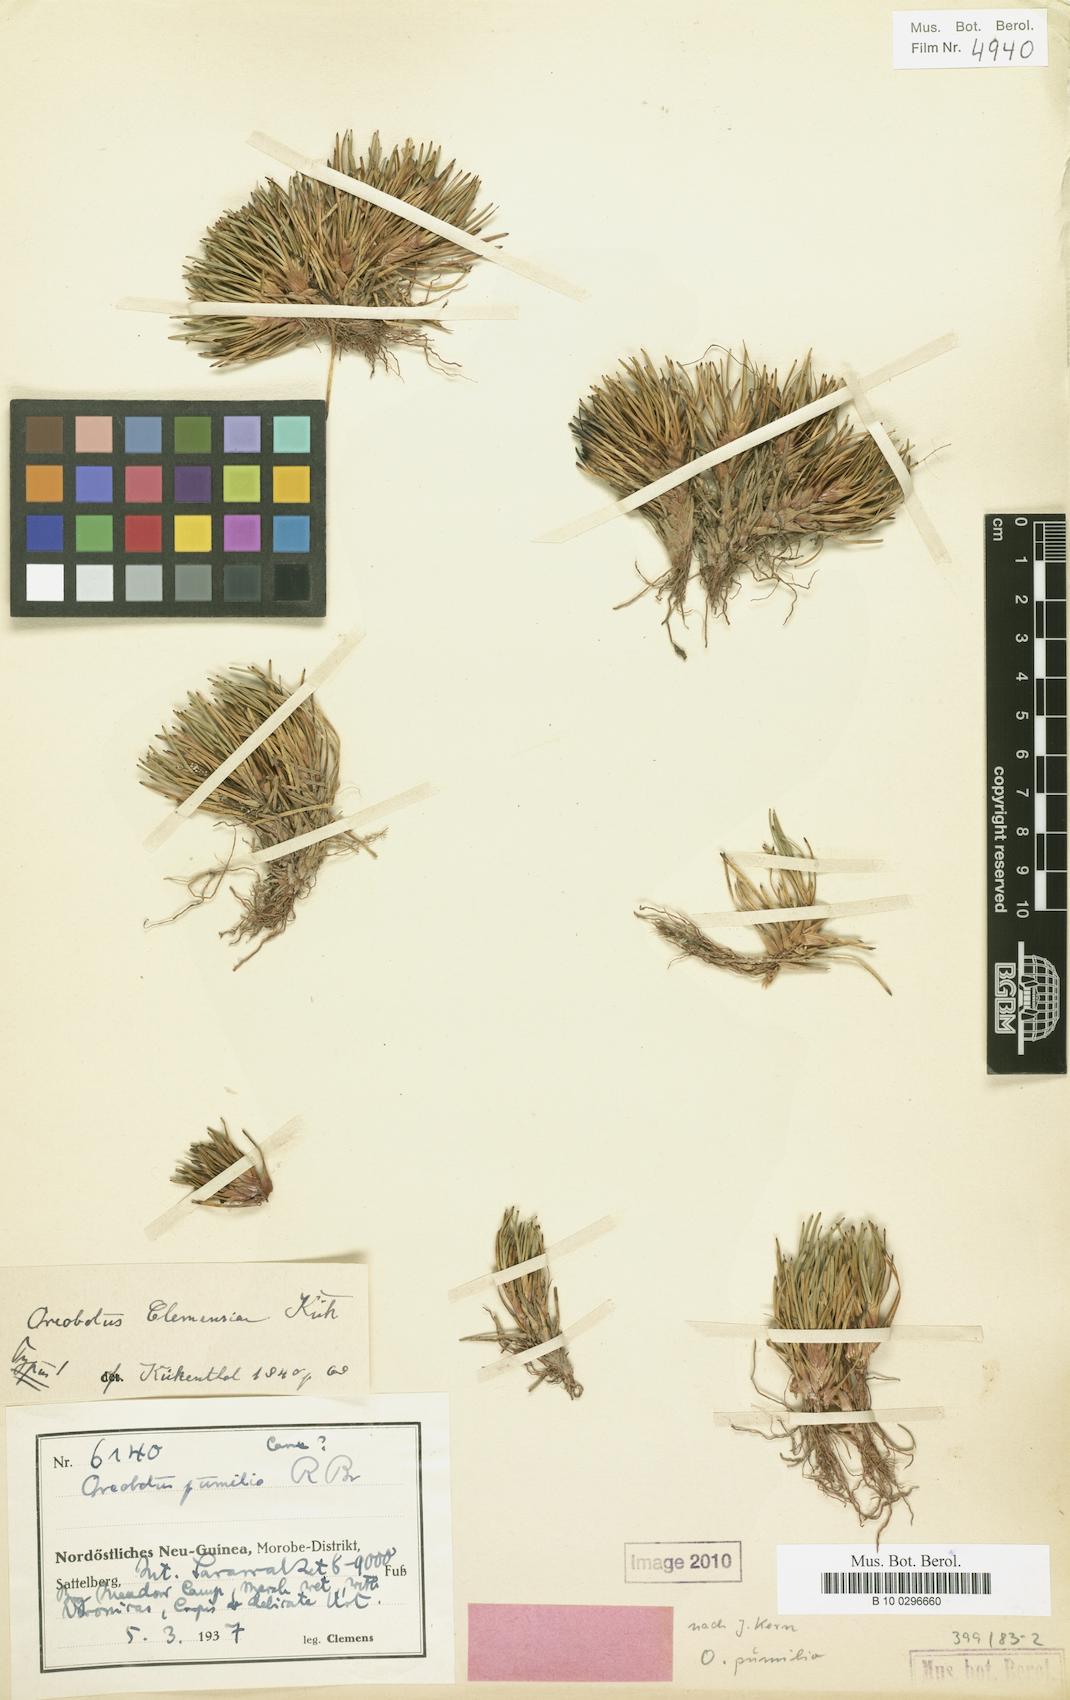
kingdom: Plantae
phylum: Tracheophyta
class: Liliopsida
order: Poales
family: Cyperaceae
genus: Oreobolus
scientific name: Oreobolus pumilio
